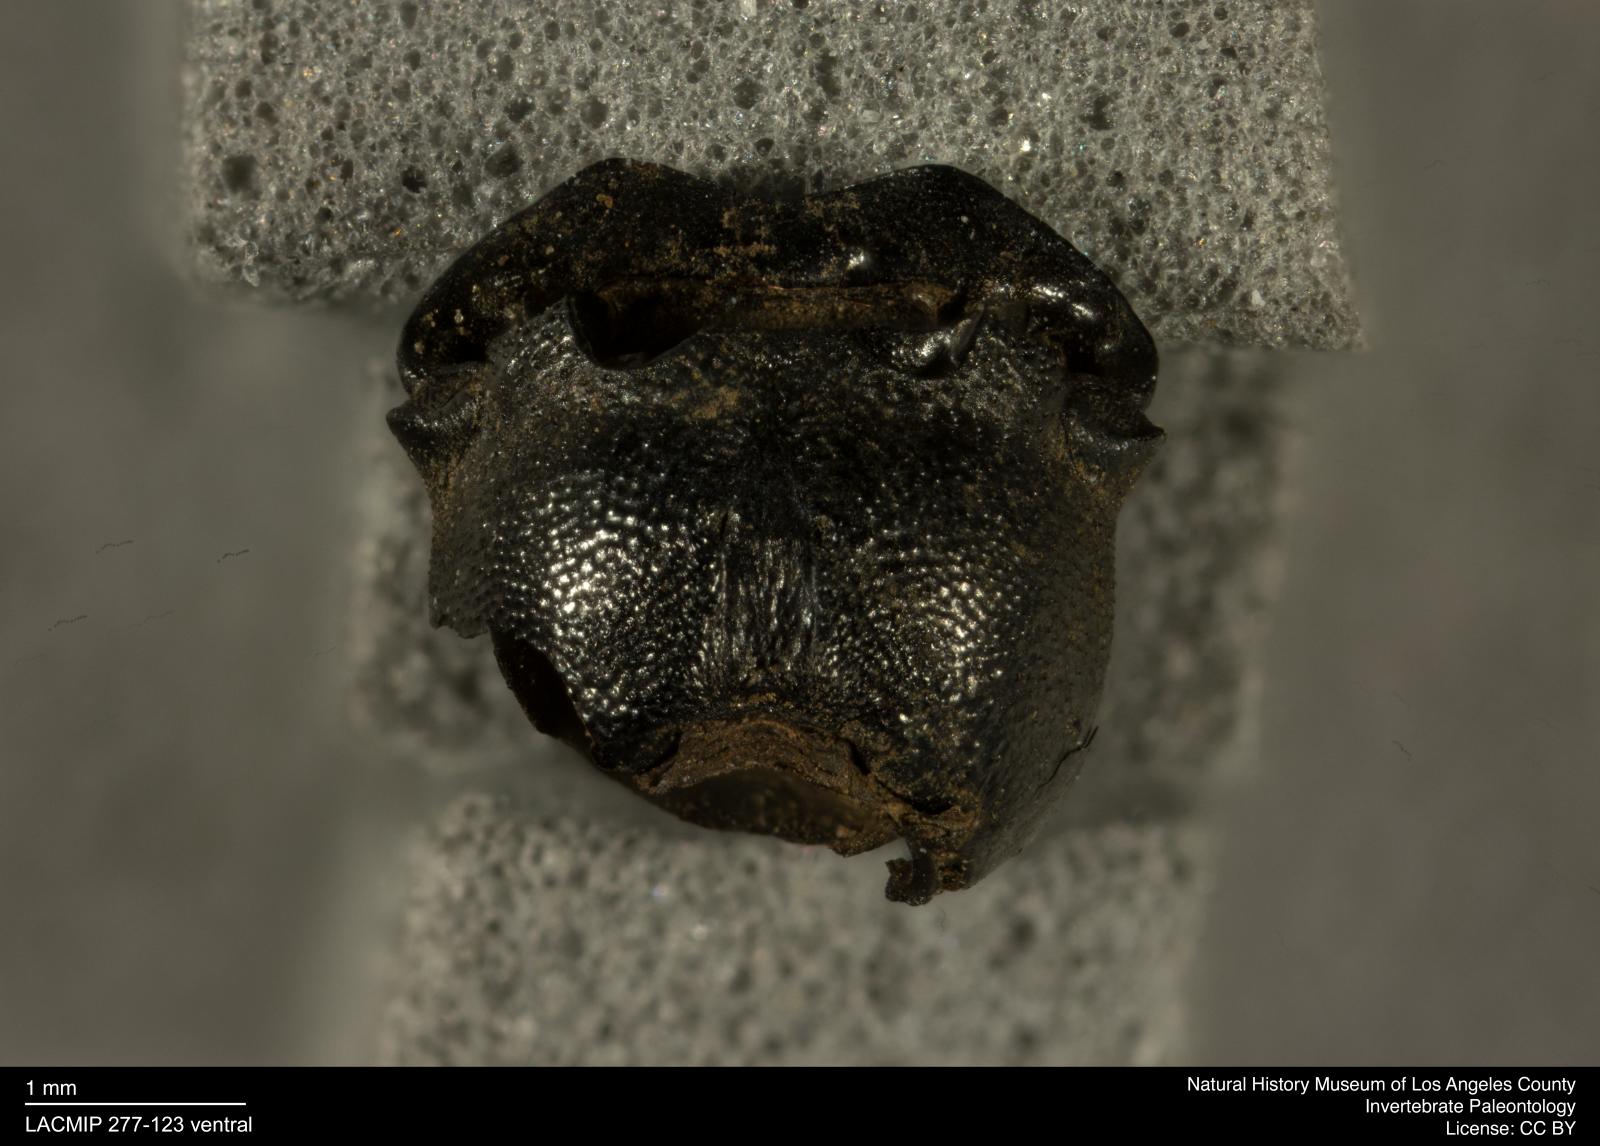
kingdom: Animalia
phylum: Arthropoda
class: Insecta
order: Coleoptera
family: Tenebrionidae
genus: Coniontis
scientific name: Coniontis abdominalis
